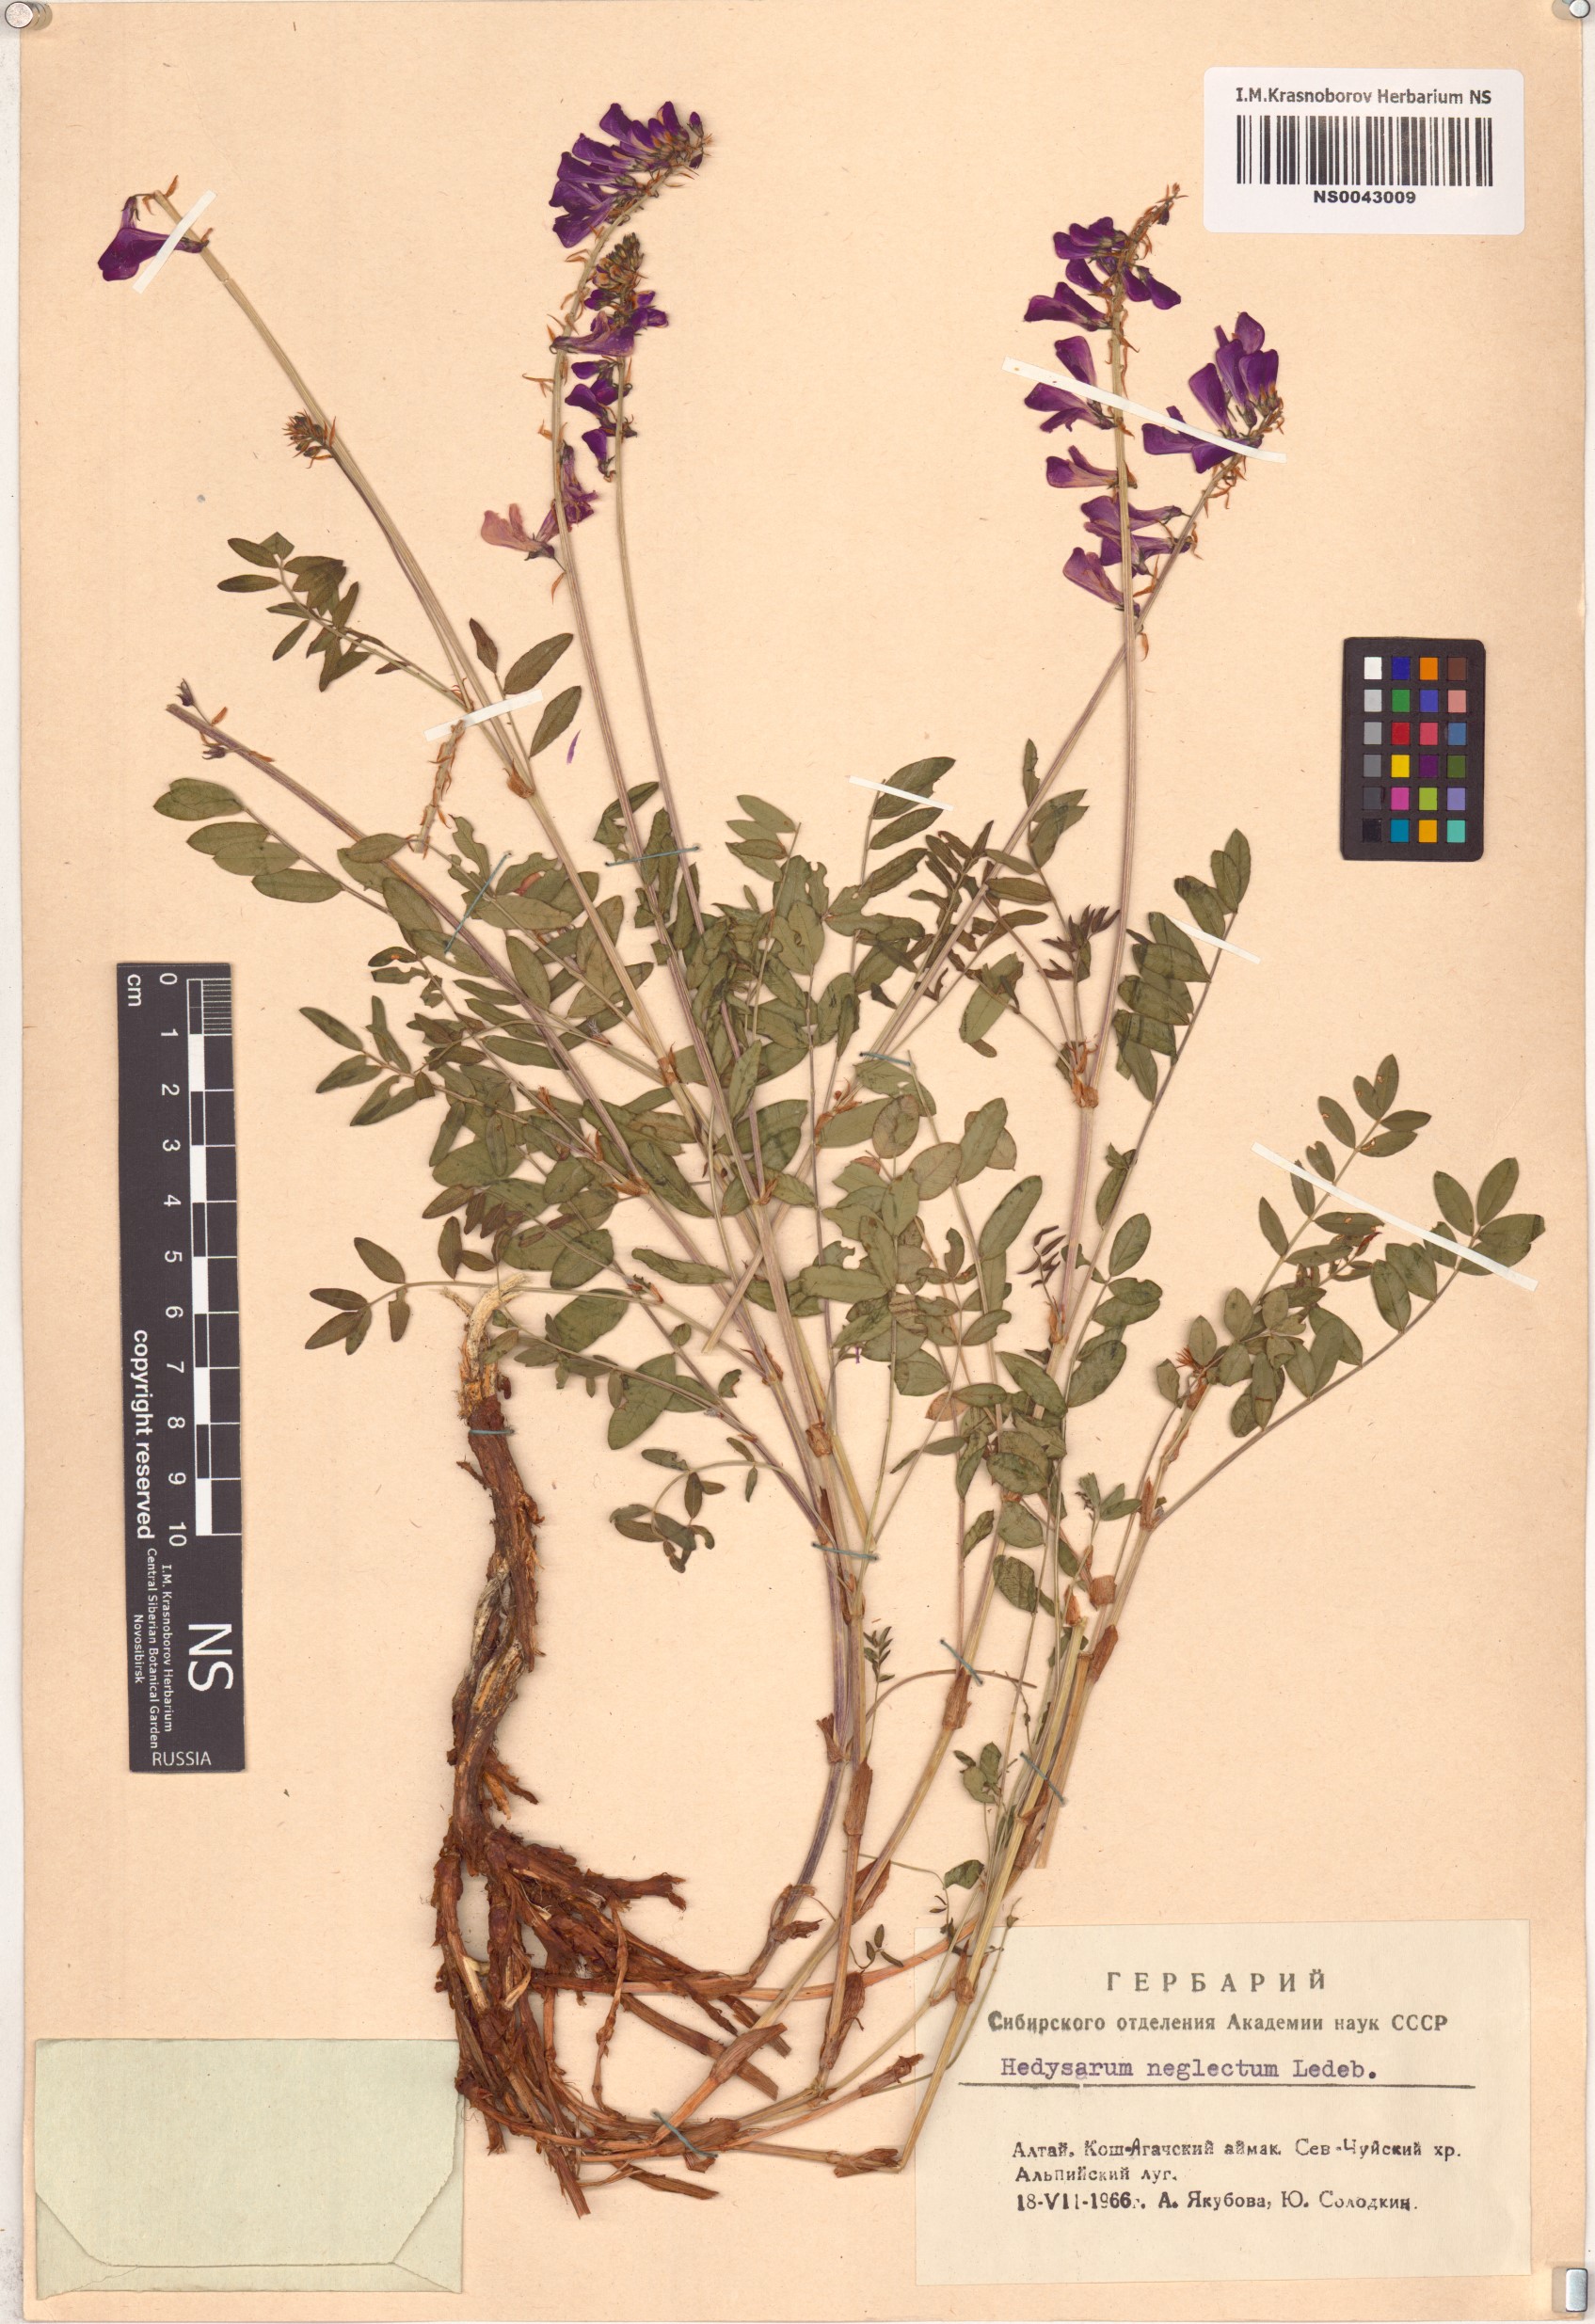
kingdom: Plantae
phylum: Tracheophyta
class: Magnoliopsida
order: Fabales
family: Fabaceae
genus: Hedysarum
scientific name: Hedysarum neglectum
